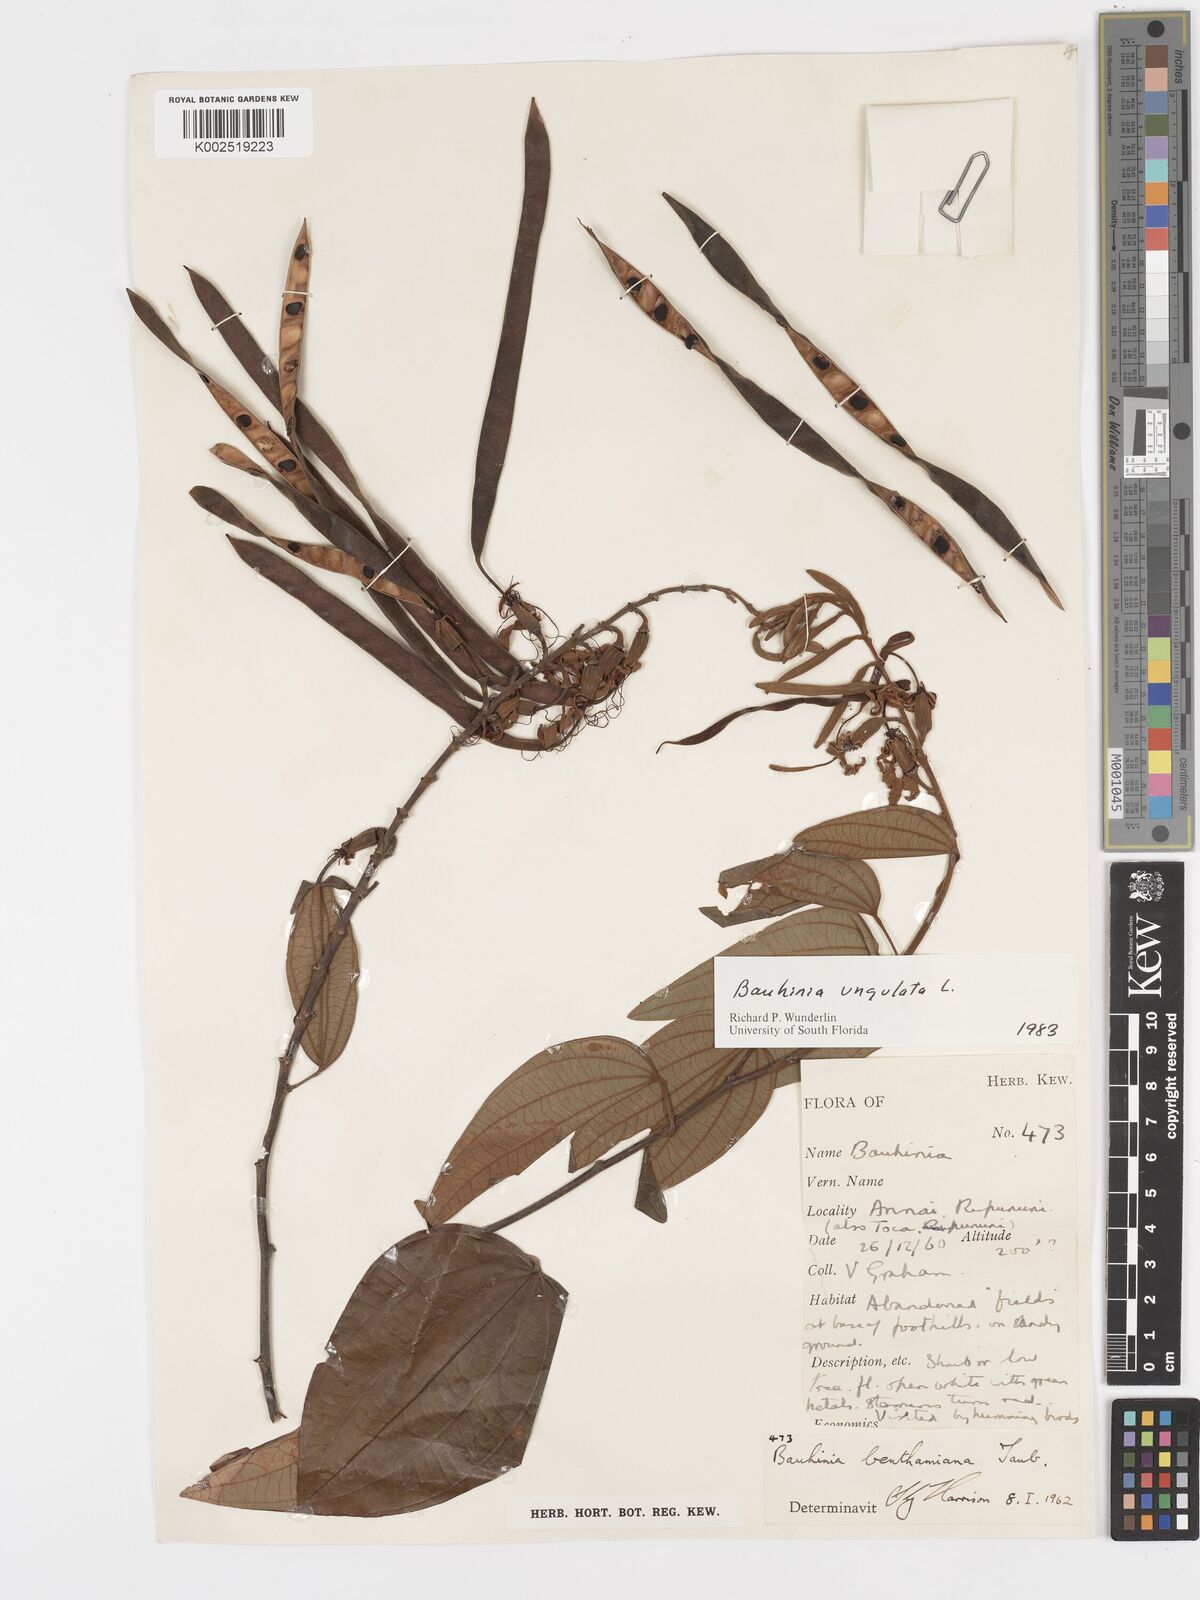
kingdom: Plantae
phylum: Tracheophyta
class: Magnoliopsida
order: Fabales
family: Fabaceae
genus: Bauhinia
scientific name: Bauhinia ungulata
